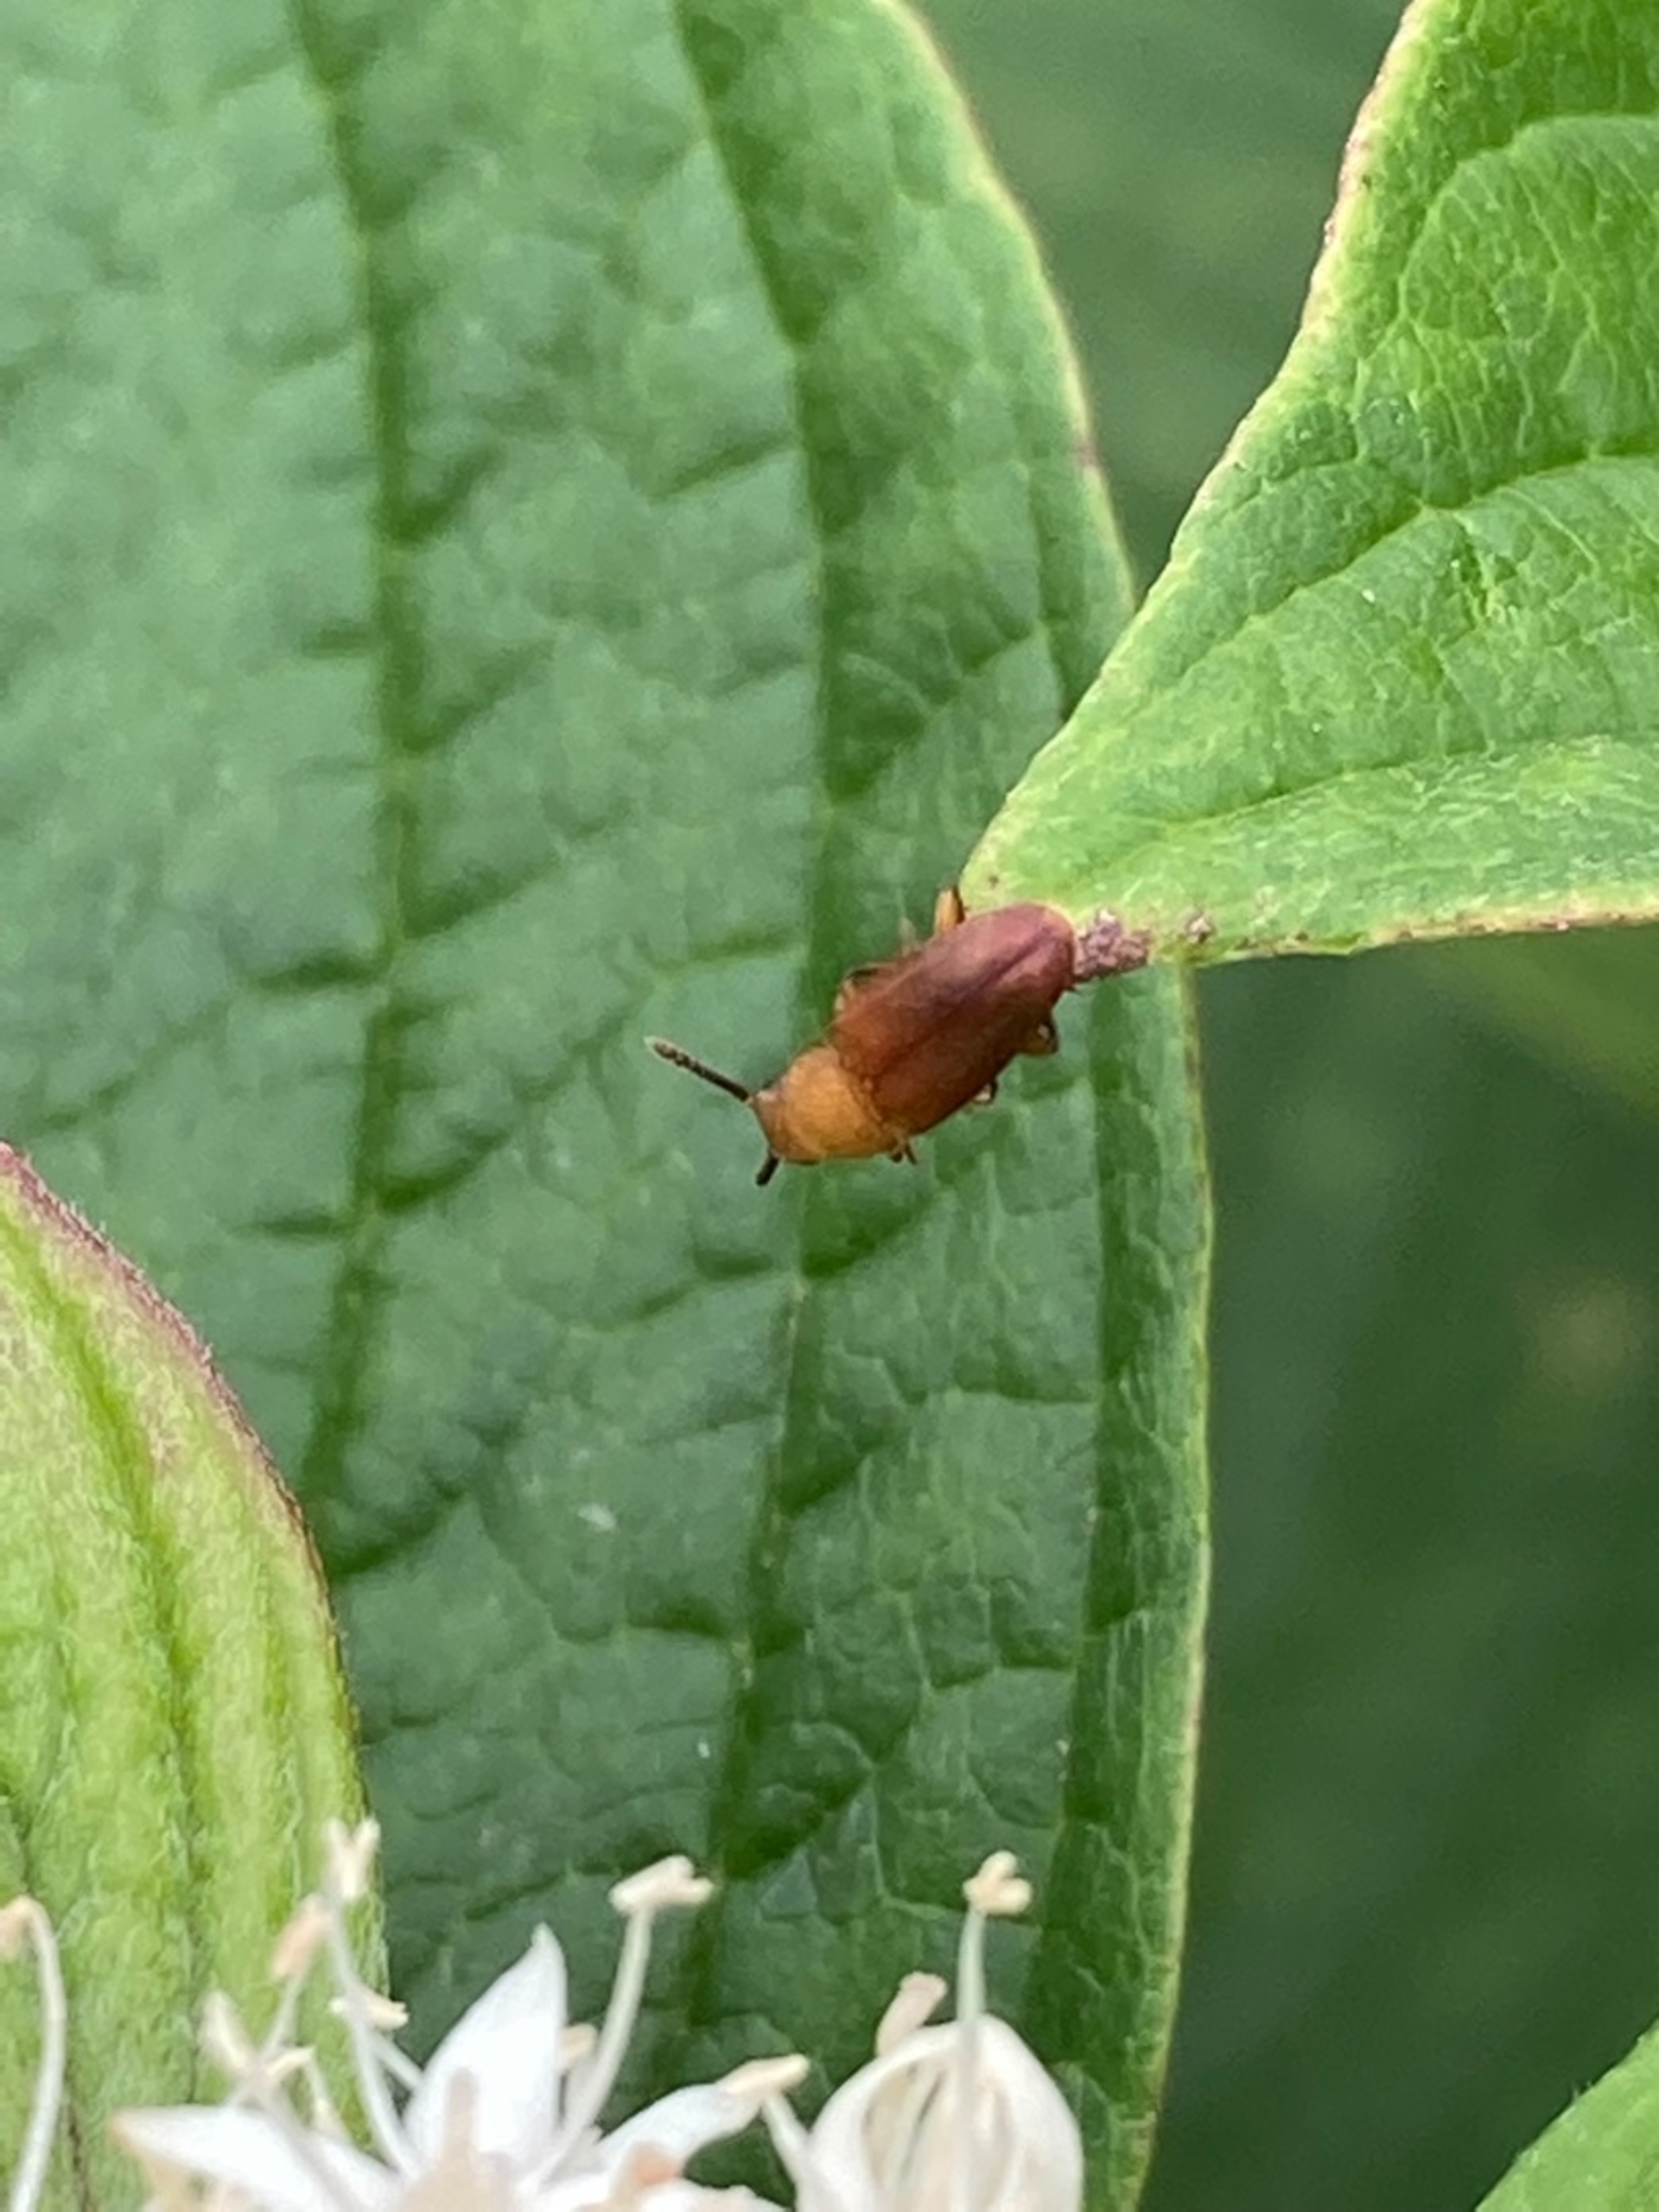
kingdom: Animalia
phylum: Arthropoda
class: Insecta
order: Coleoptera
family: Cryptophagidae
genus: Antherophagus
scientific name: Antherophagus pallens
